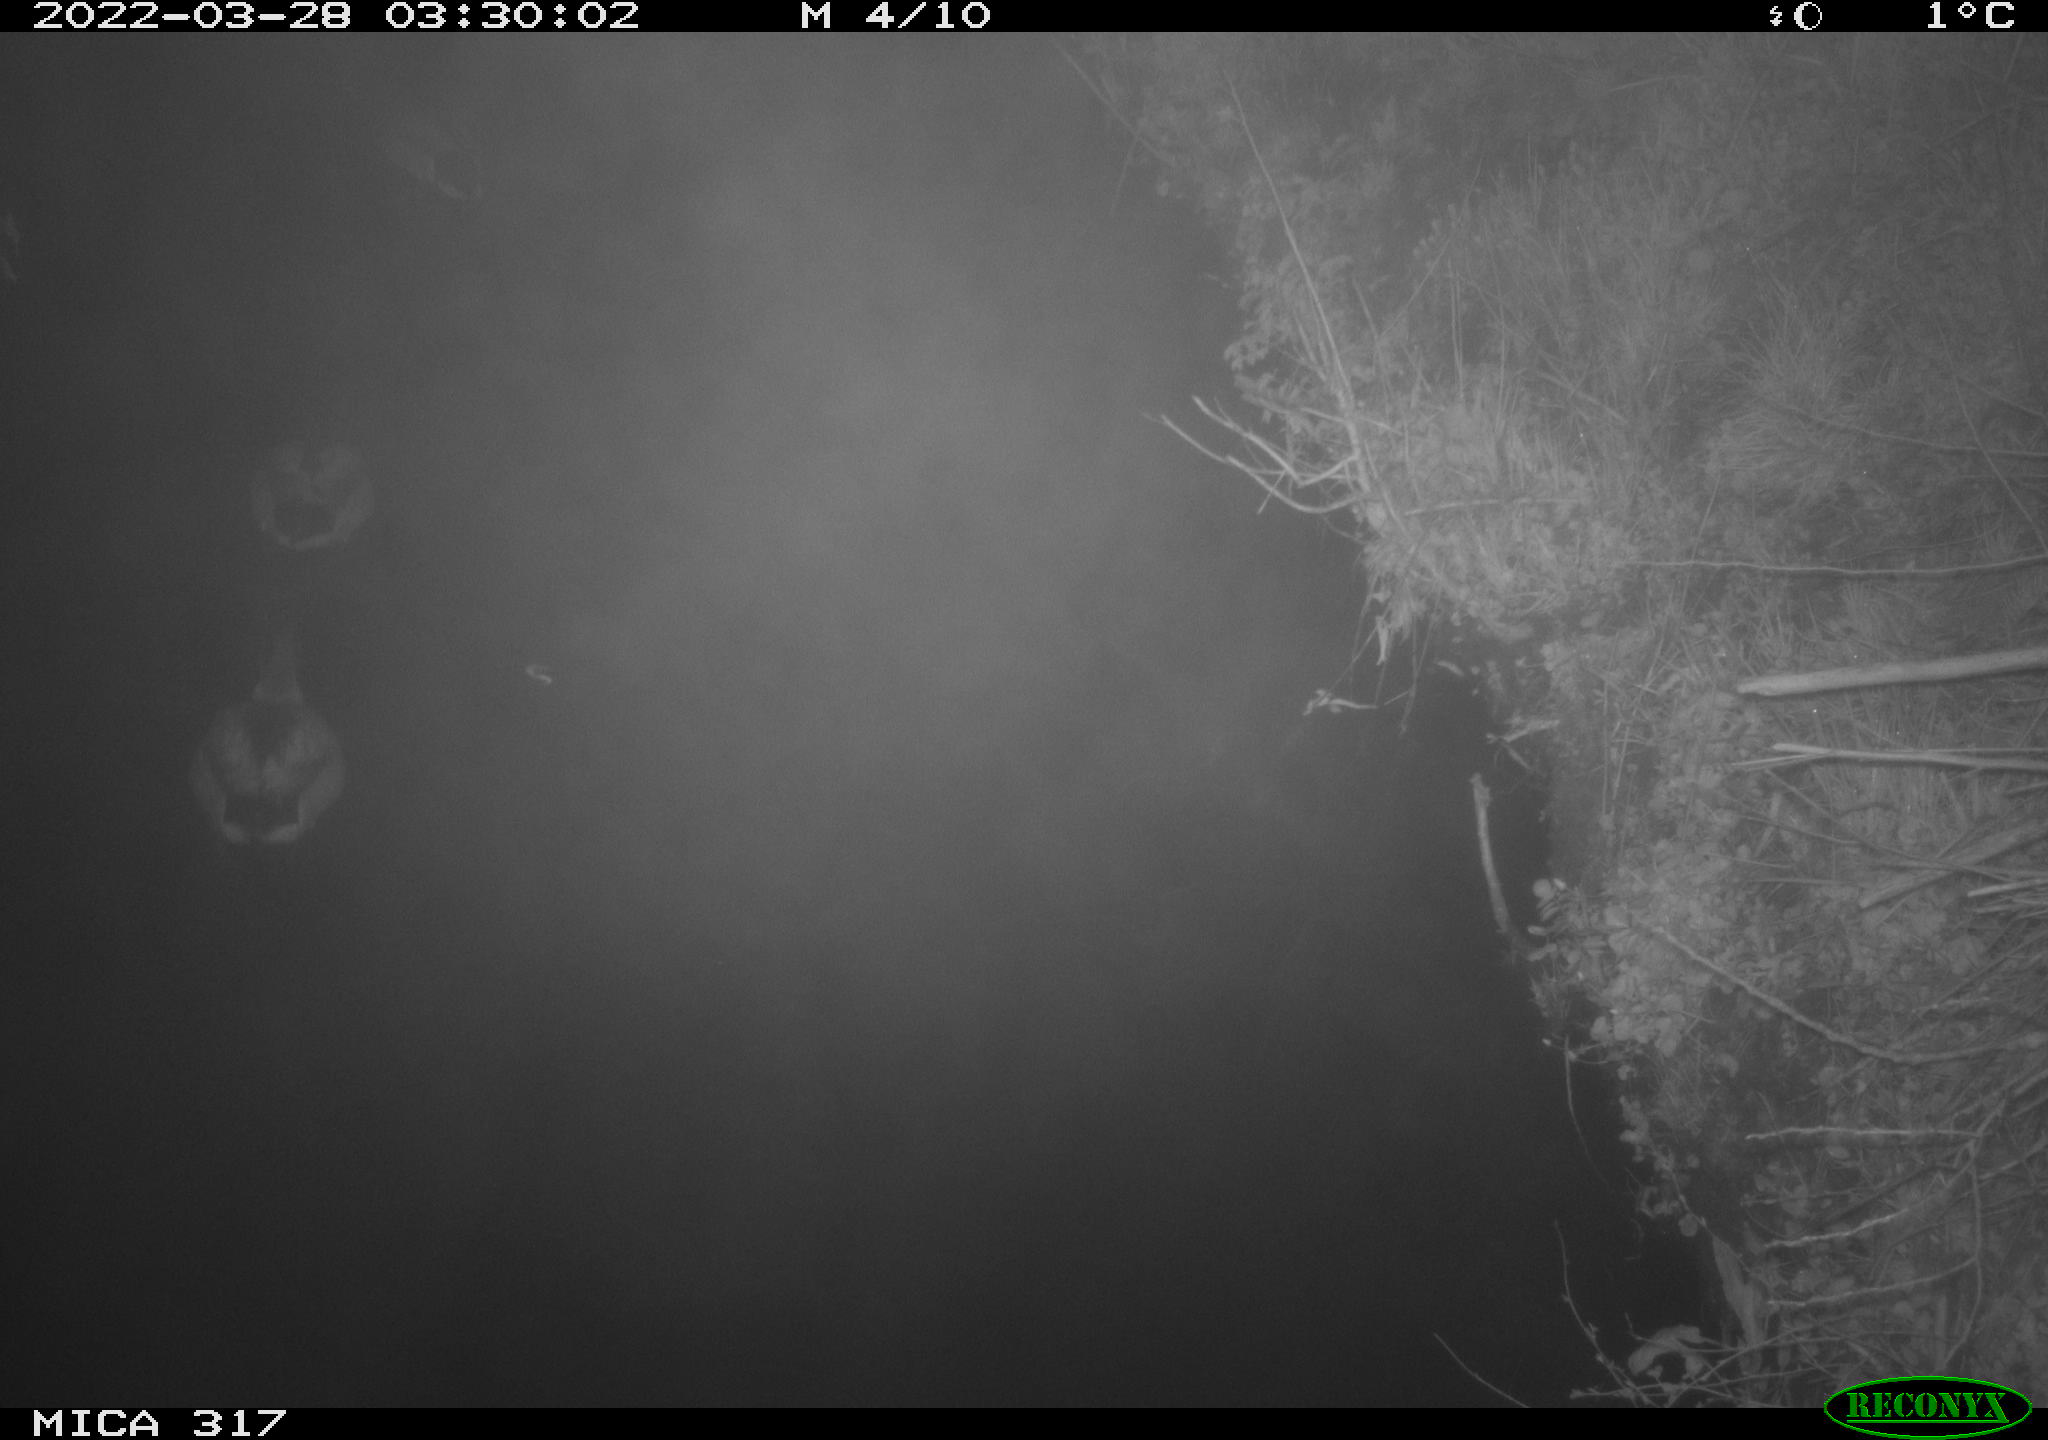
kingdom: Animalia
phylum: Chordata
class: Aves
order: Anseriformes
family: Anatidae
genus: Anas
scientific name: Anas platyrhynchos
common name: Mallard
